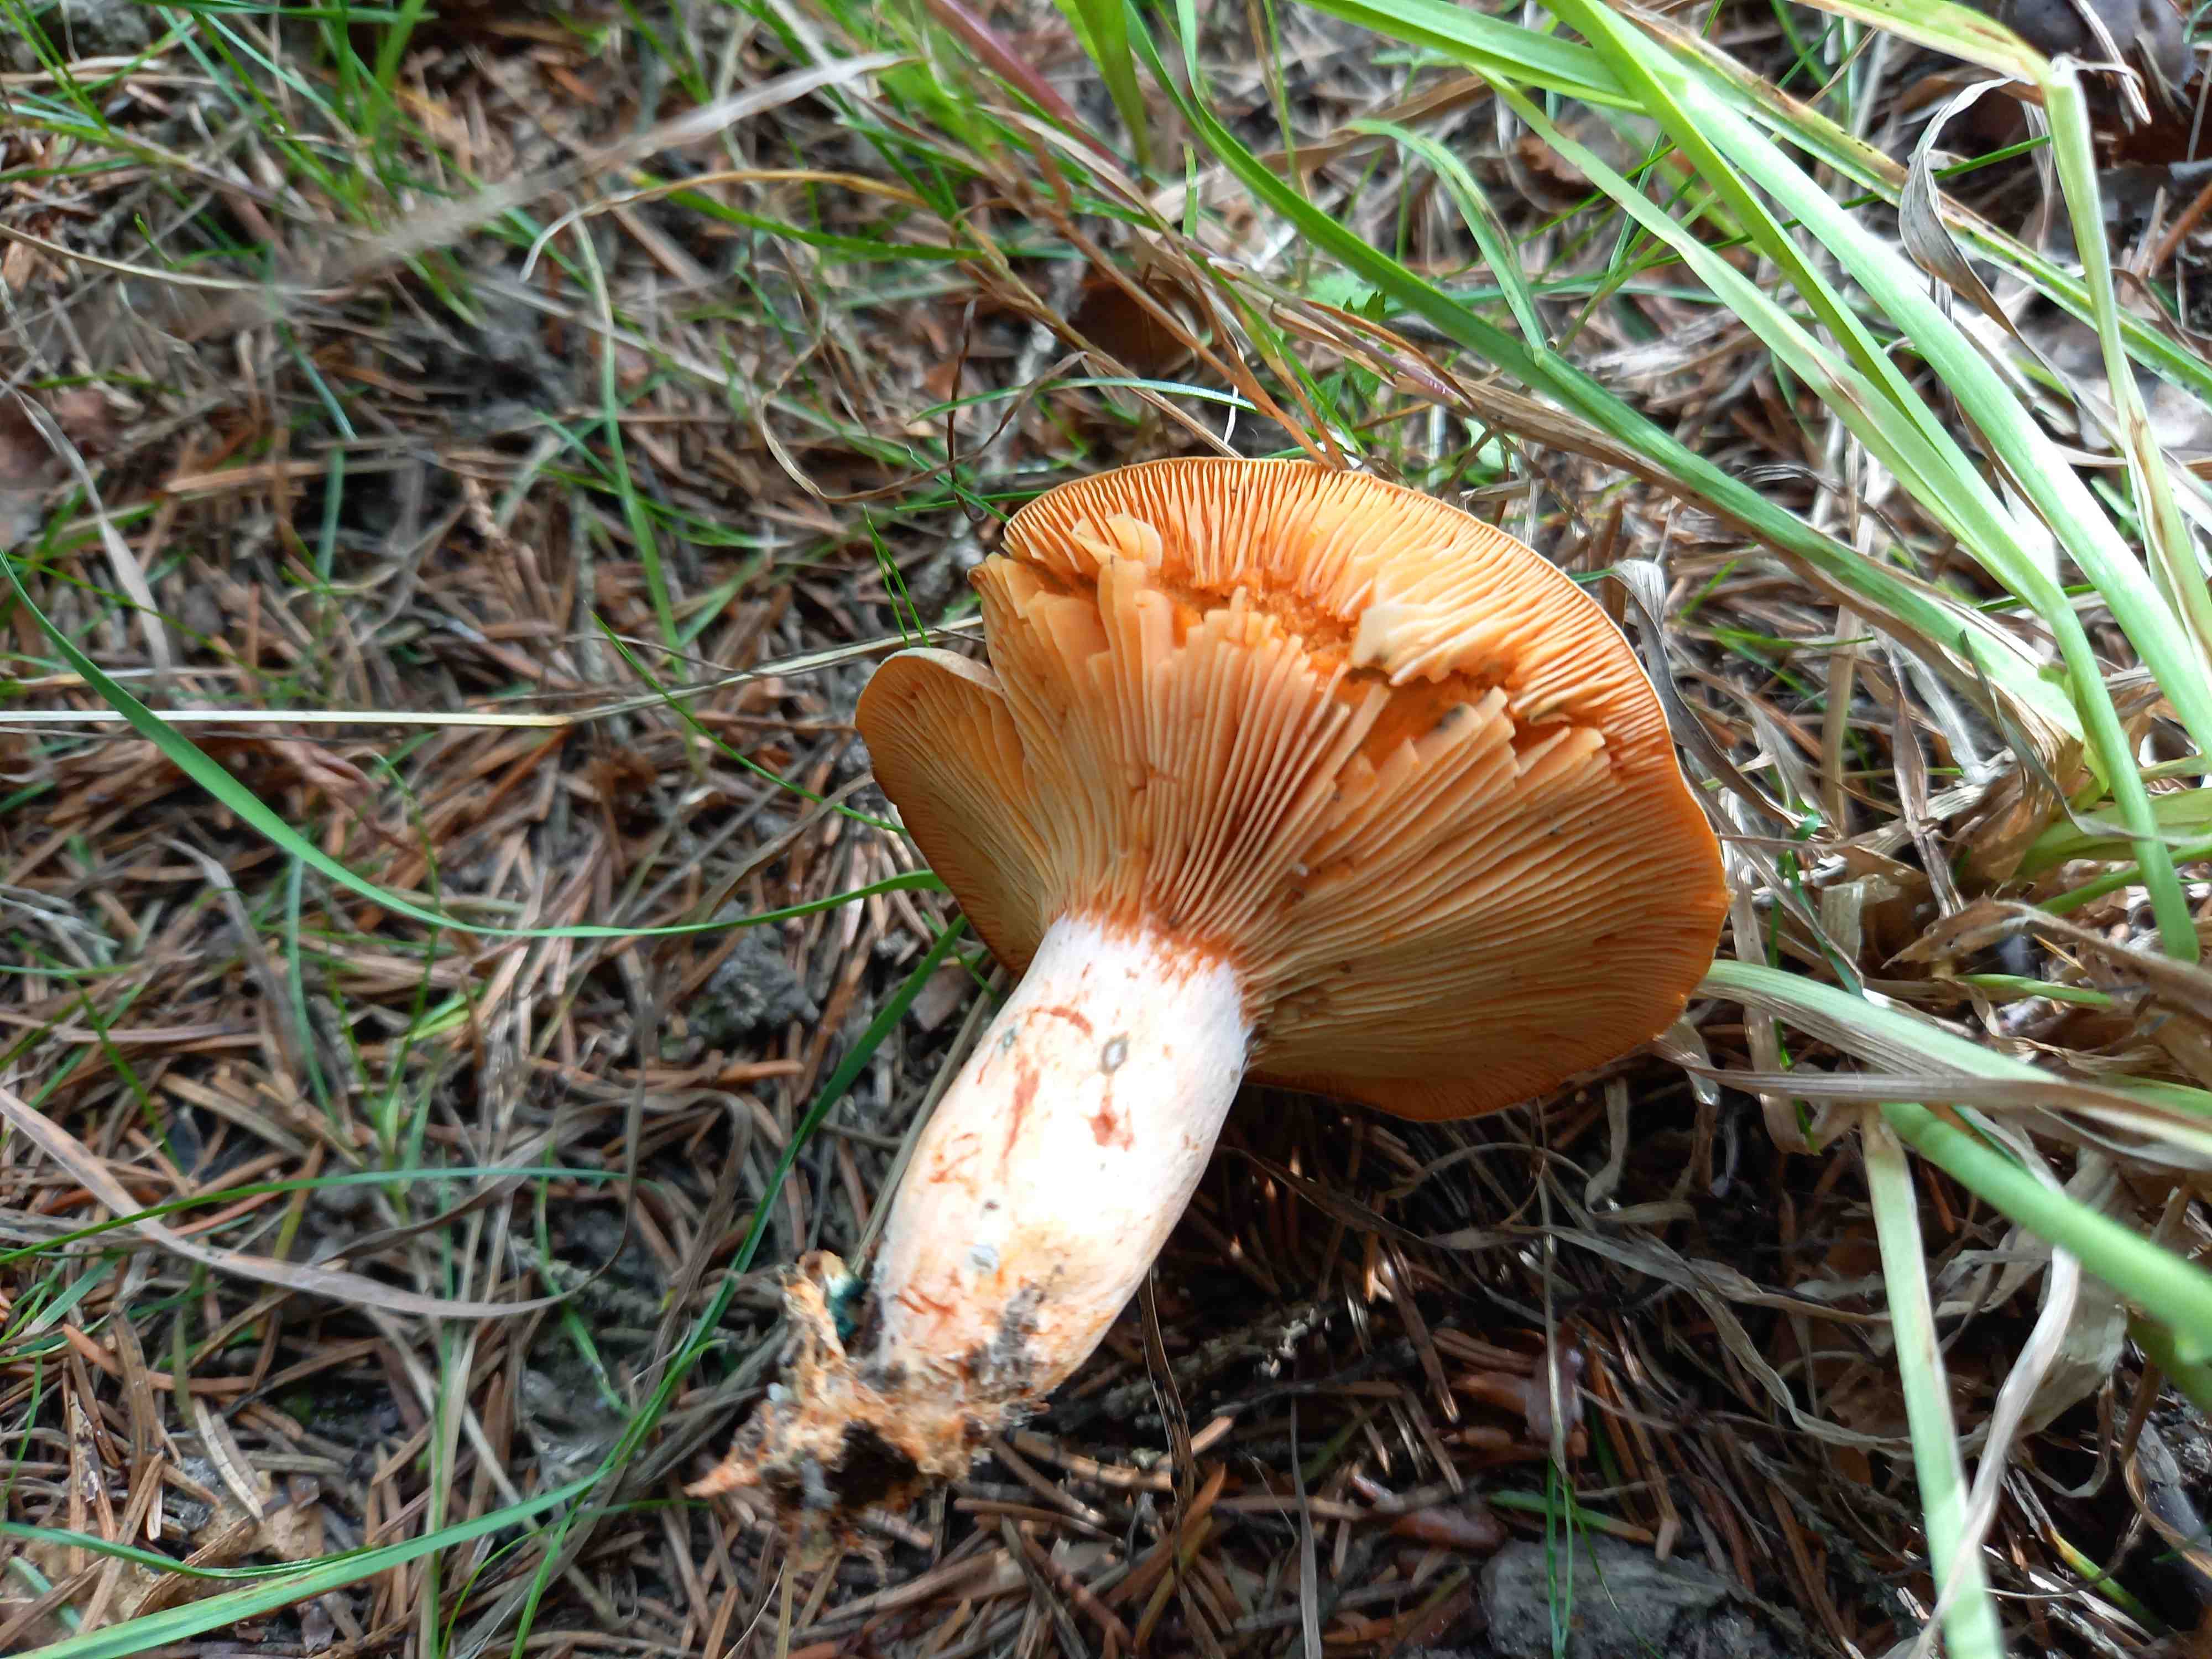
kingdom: Fungi
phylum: Basidiomycota
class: Agaricomycetes
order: Russulales
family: Russulaceae
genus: Lactarius
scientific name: Lactarius deterrimus
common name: gran-mælkehat
